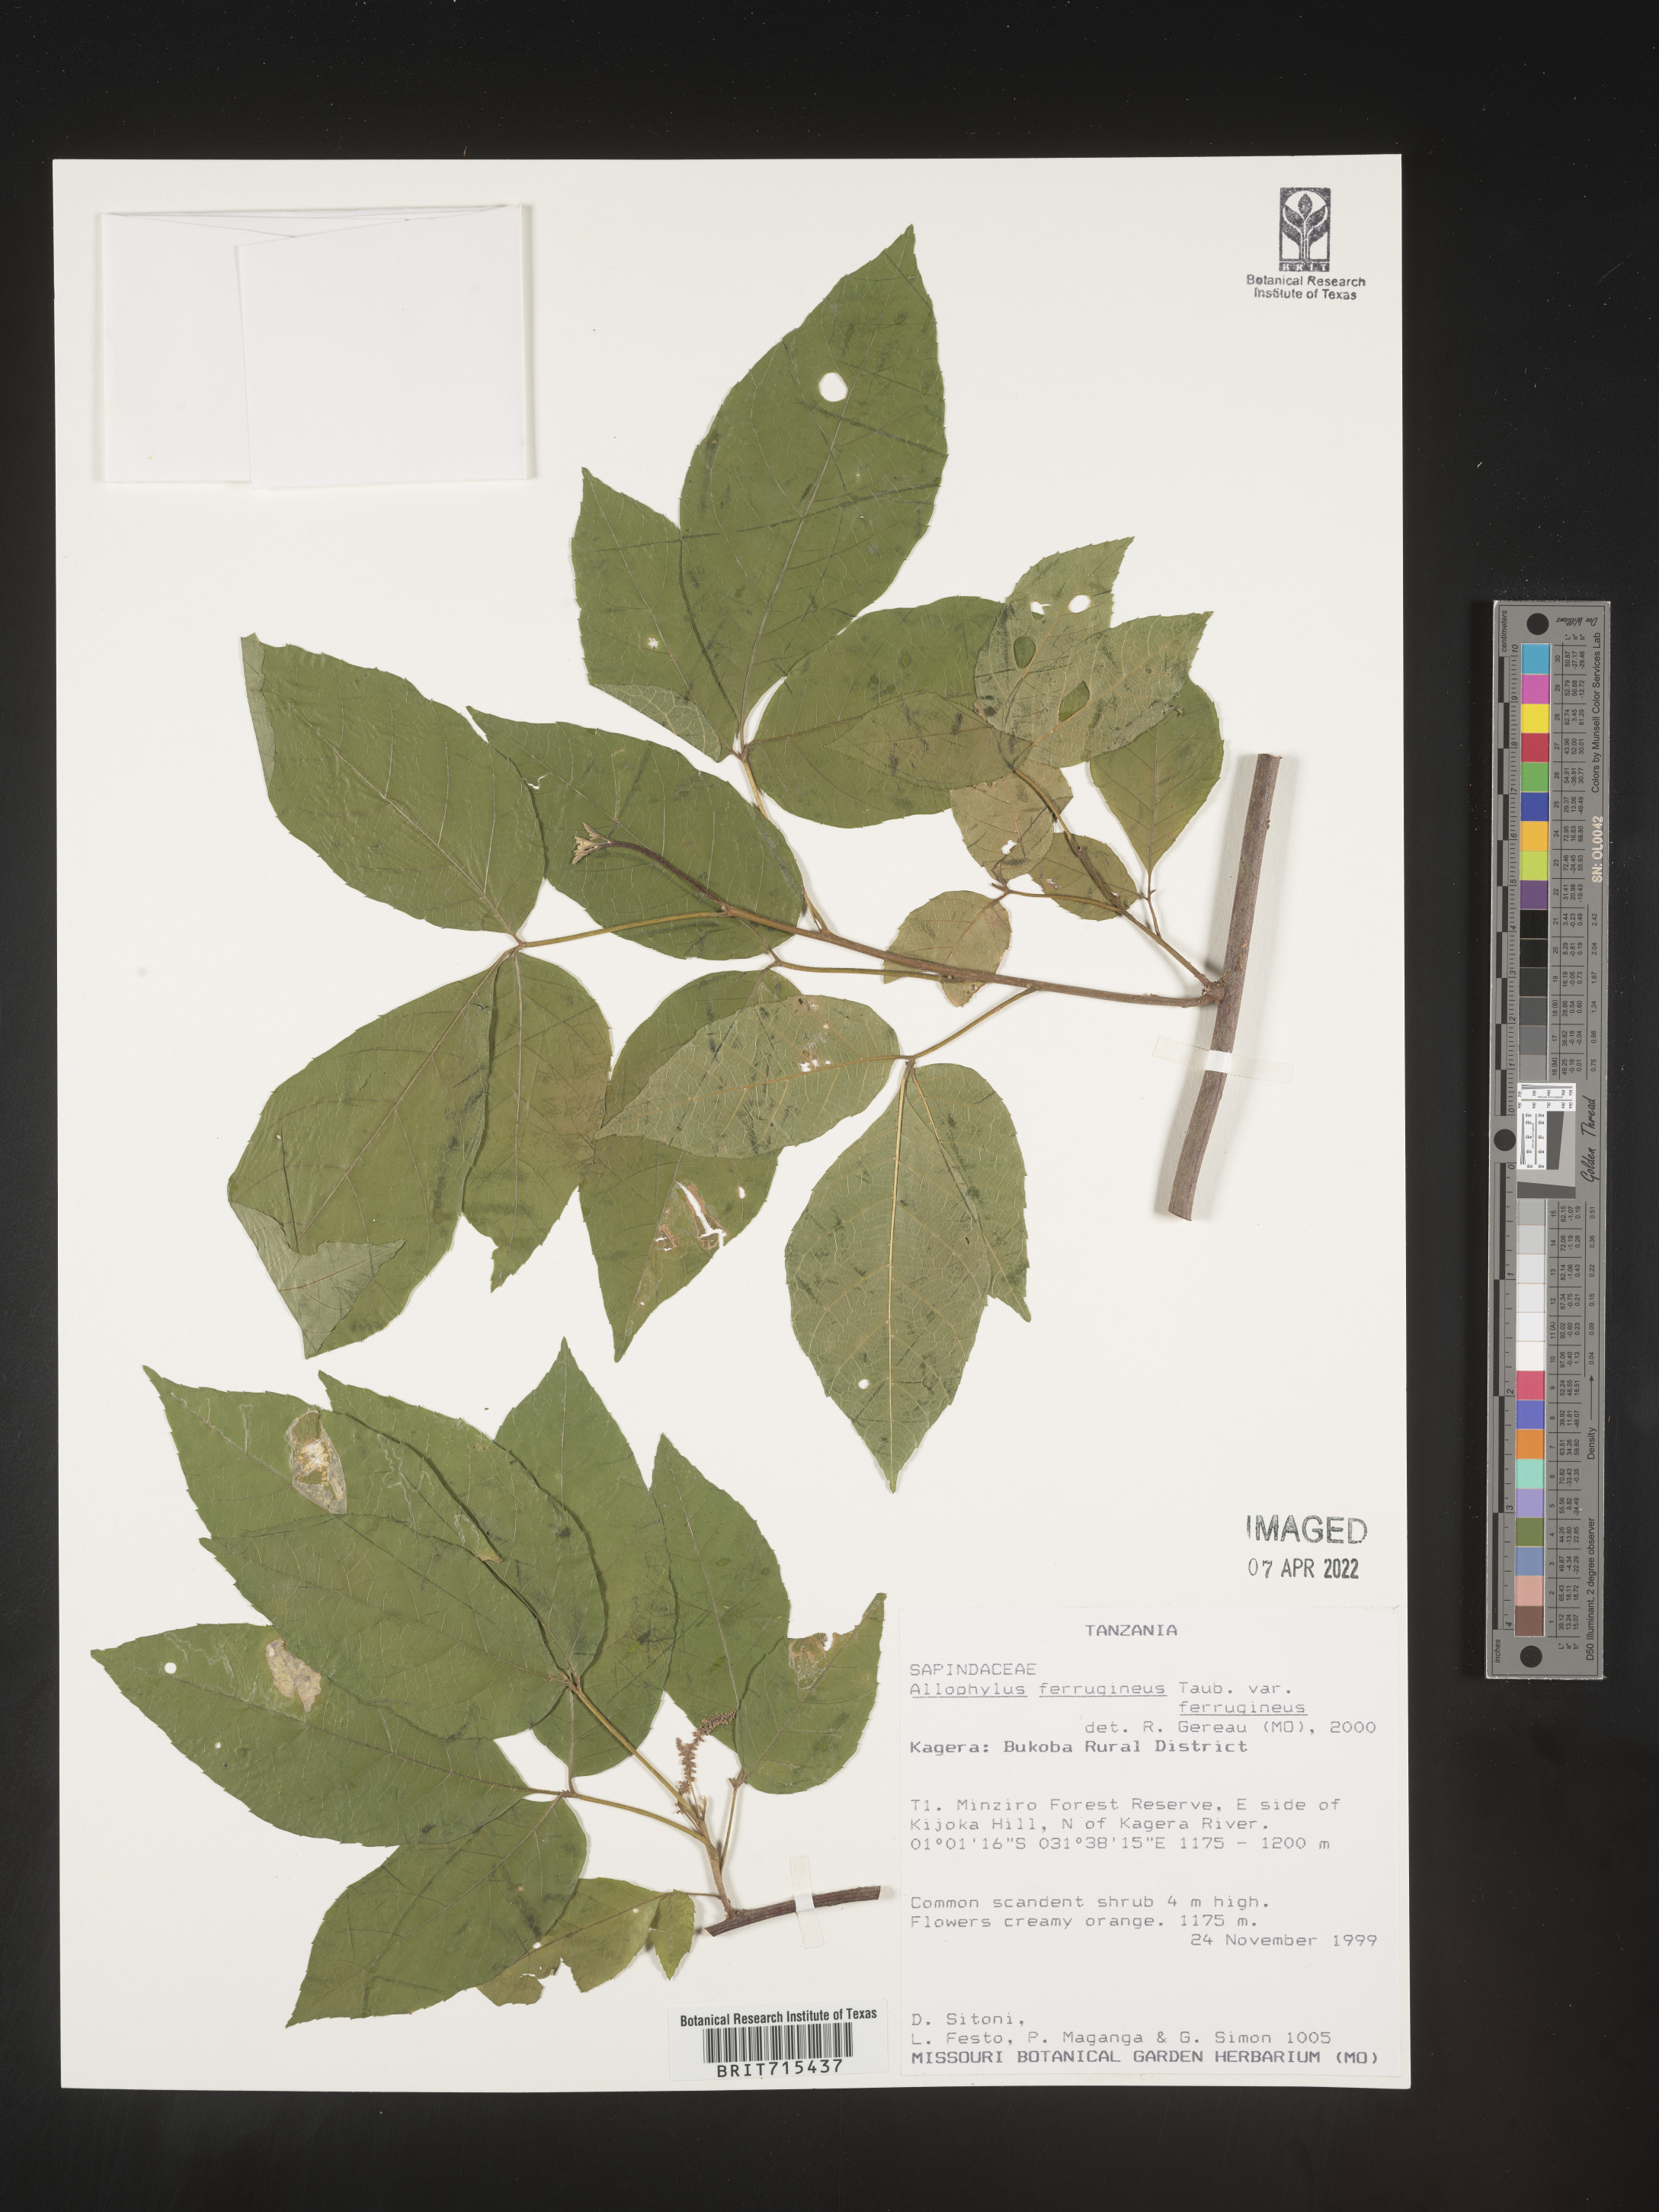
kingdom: Plantae
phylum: Tracheophyta
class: Magnoliopsida
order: Sapindales
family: Sapindaceae
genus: Allophylus
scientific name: Allophylus ferrugineus
